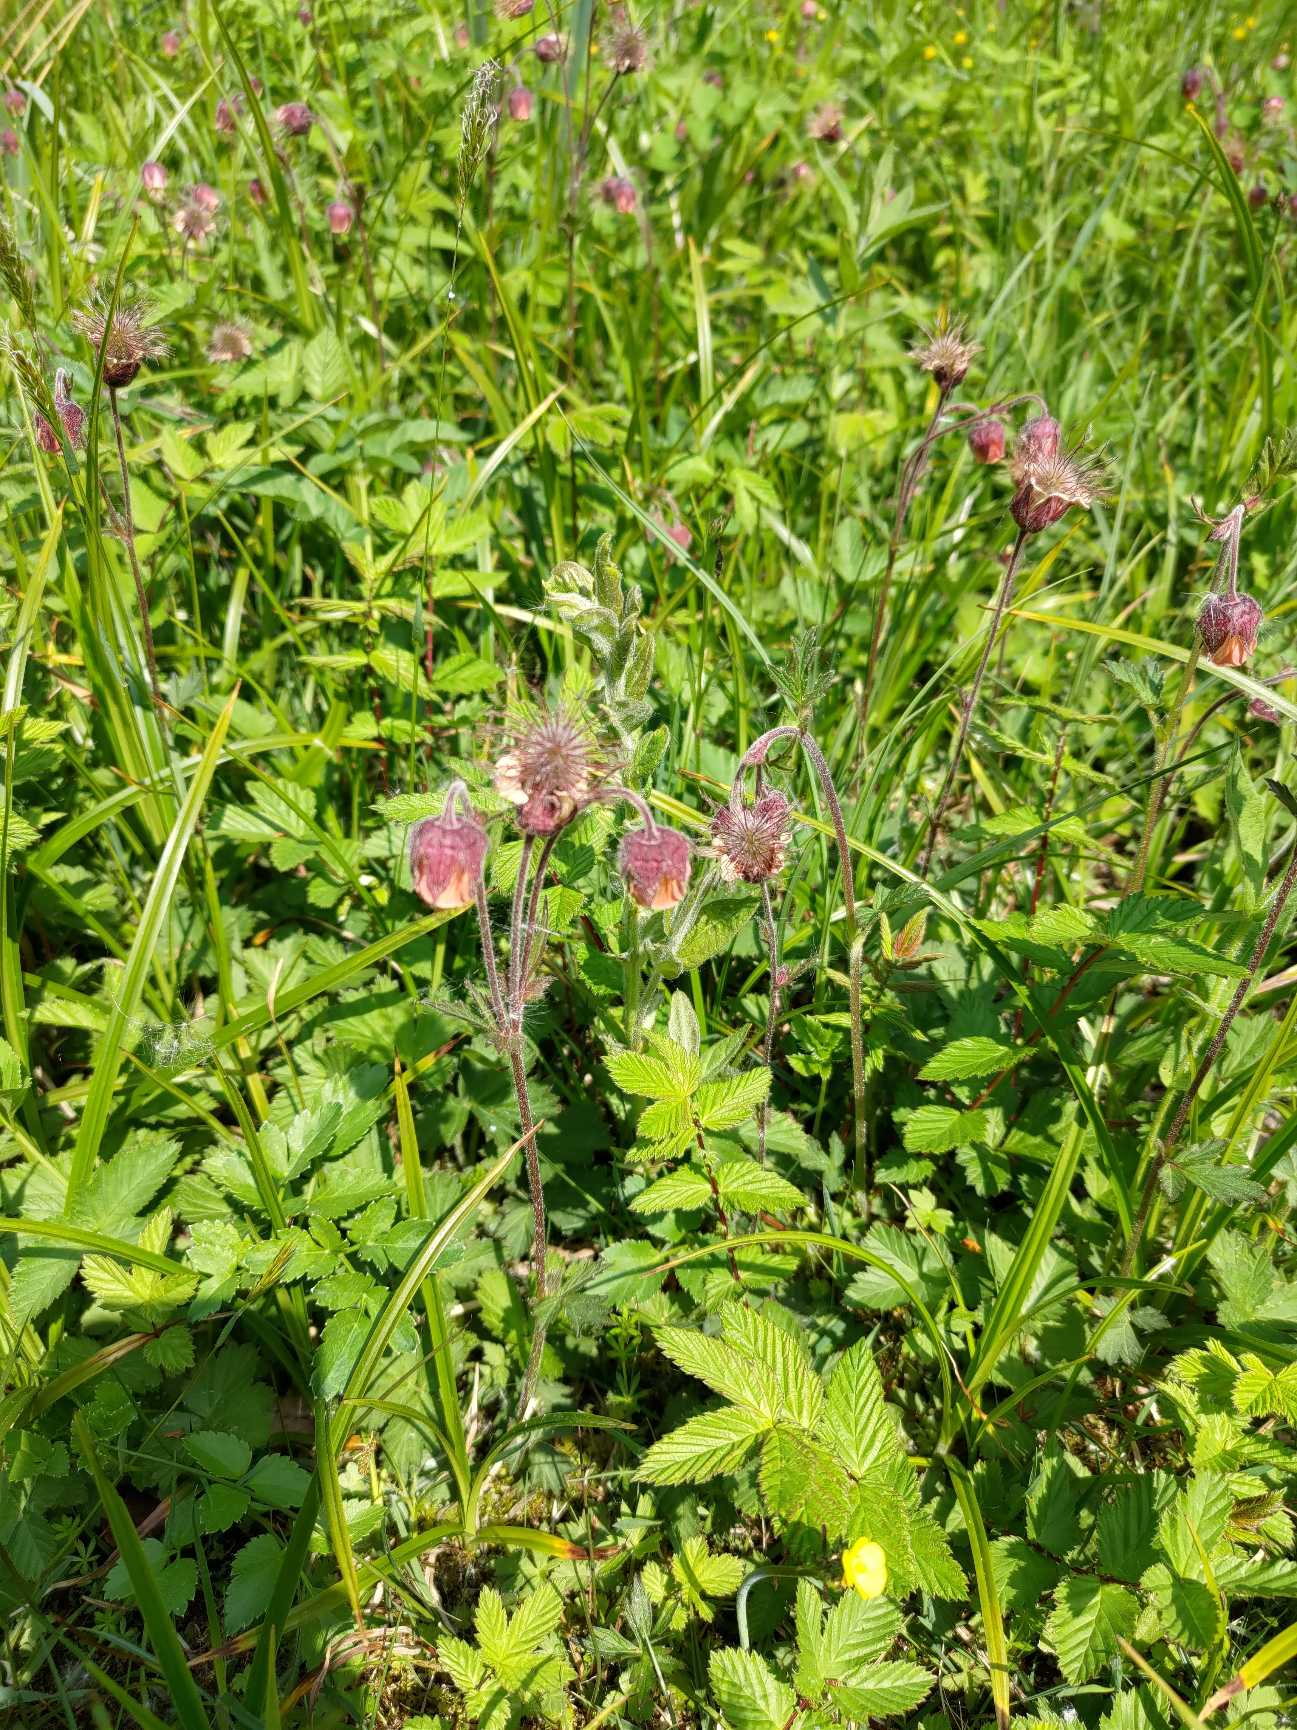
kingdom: Plantae
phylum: Tracheophyta
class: Magnoliopsida
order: Rosales
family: Rosaceae
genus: Geum
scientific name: Geum rivale
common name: Eng-nellikerod
